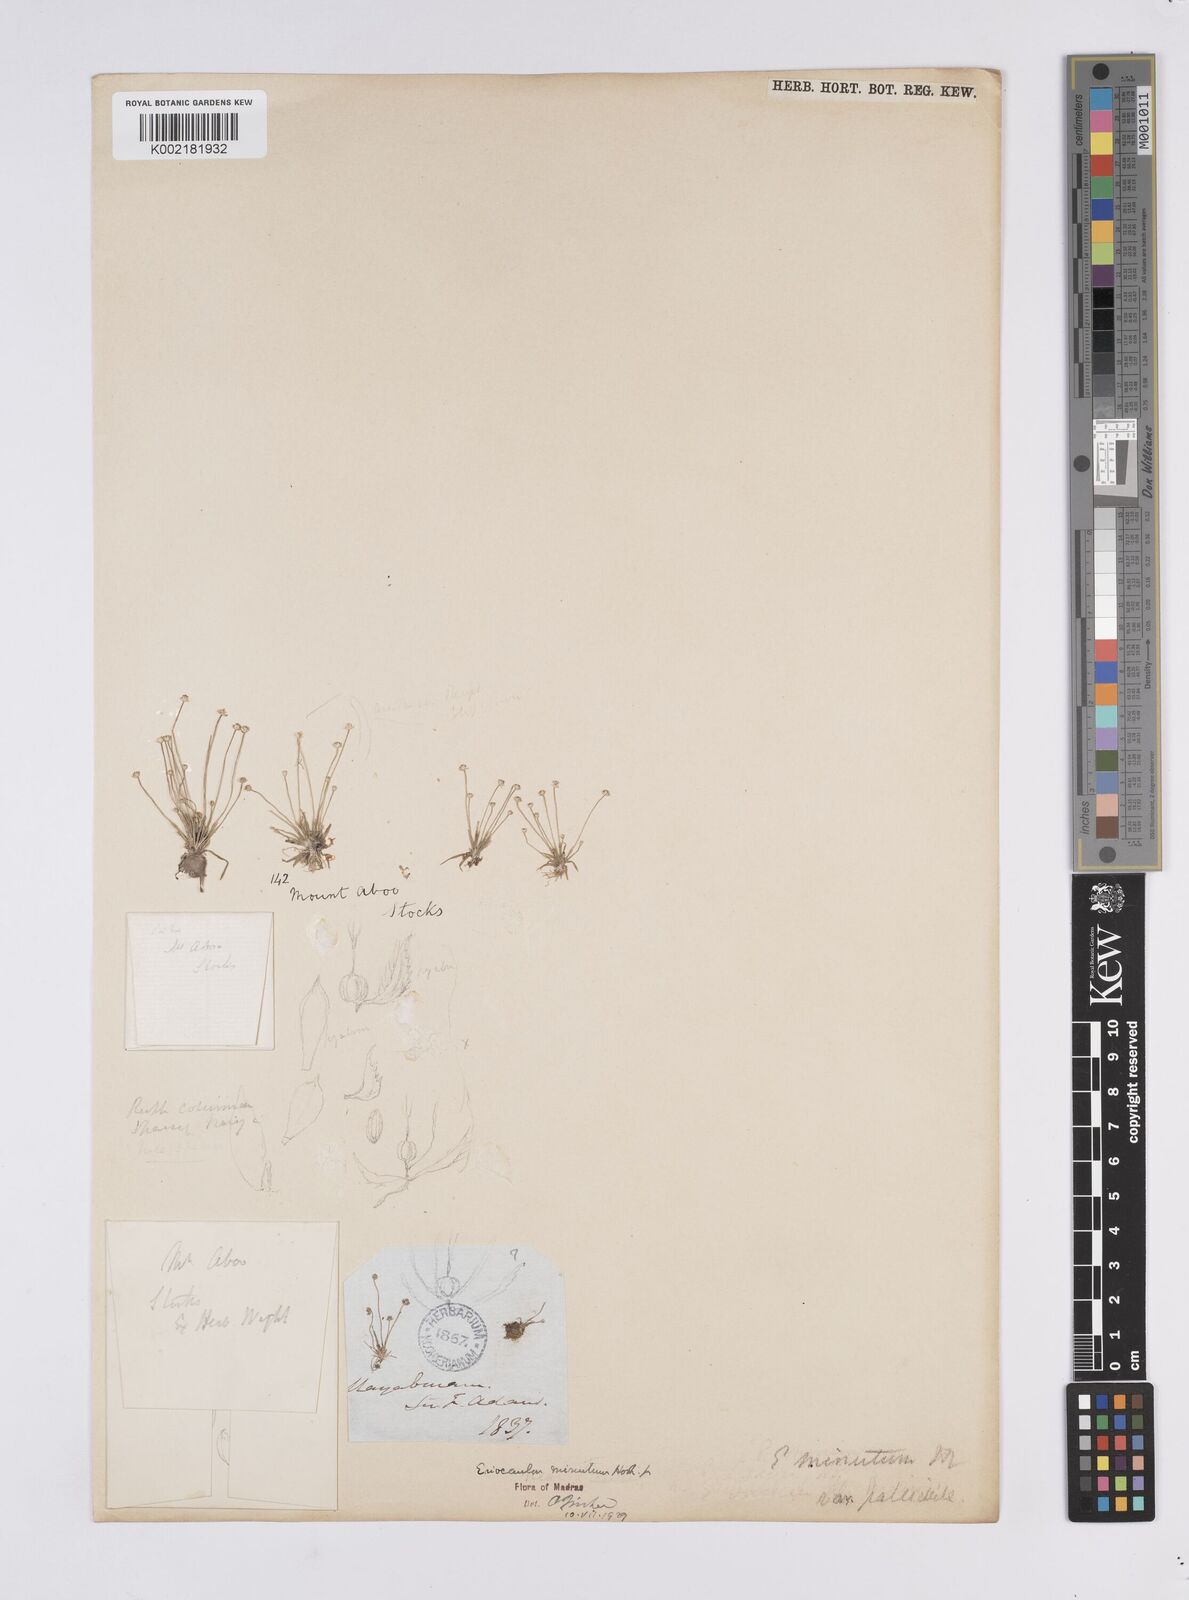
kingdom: Plantae
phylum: Tracheophyta
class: Liliopsida
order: Poales
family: Eriocaulaceae
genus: Eriocaulon
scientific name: Eriocaulon minutum
